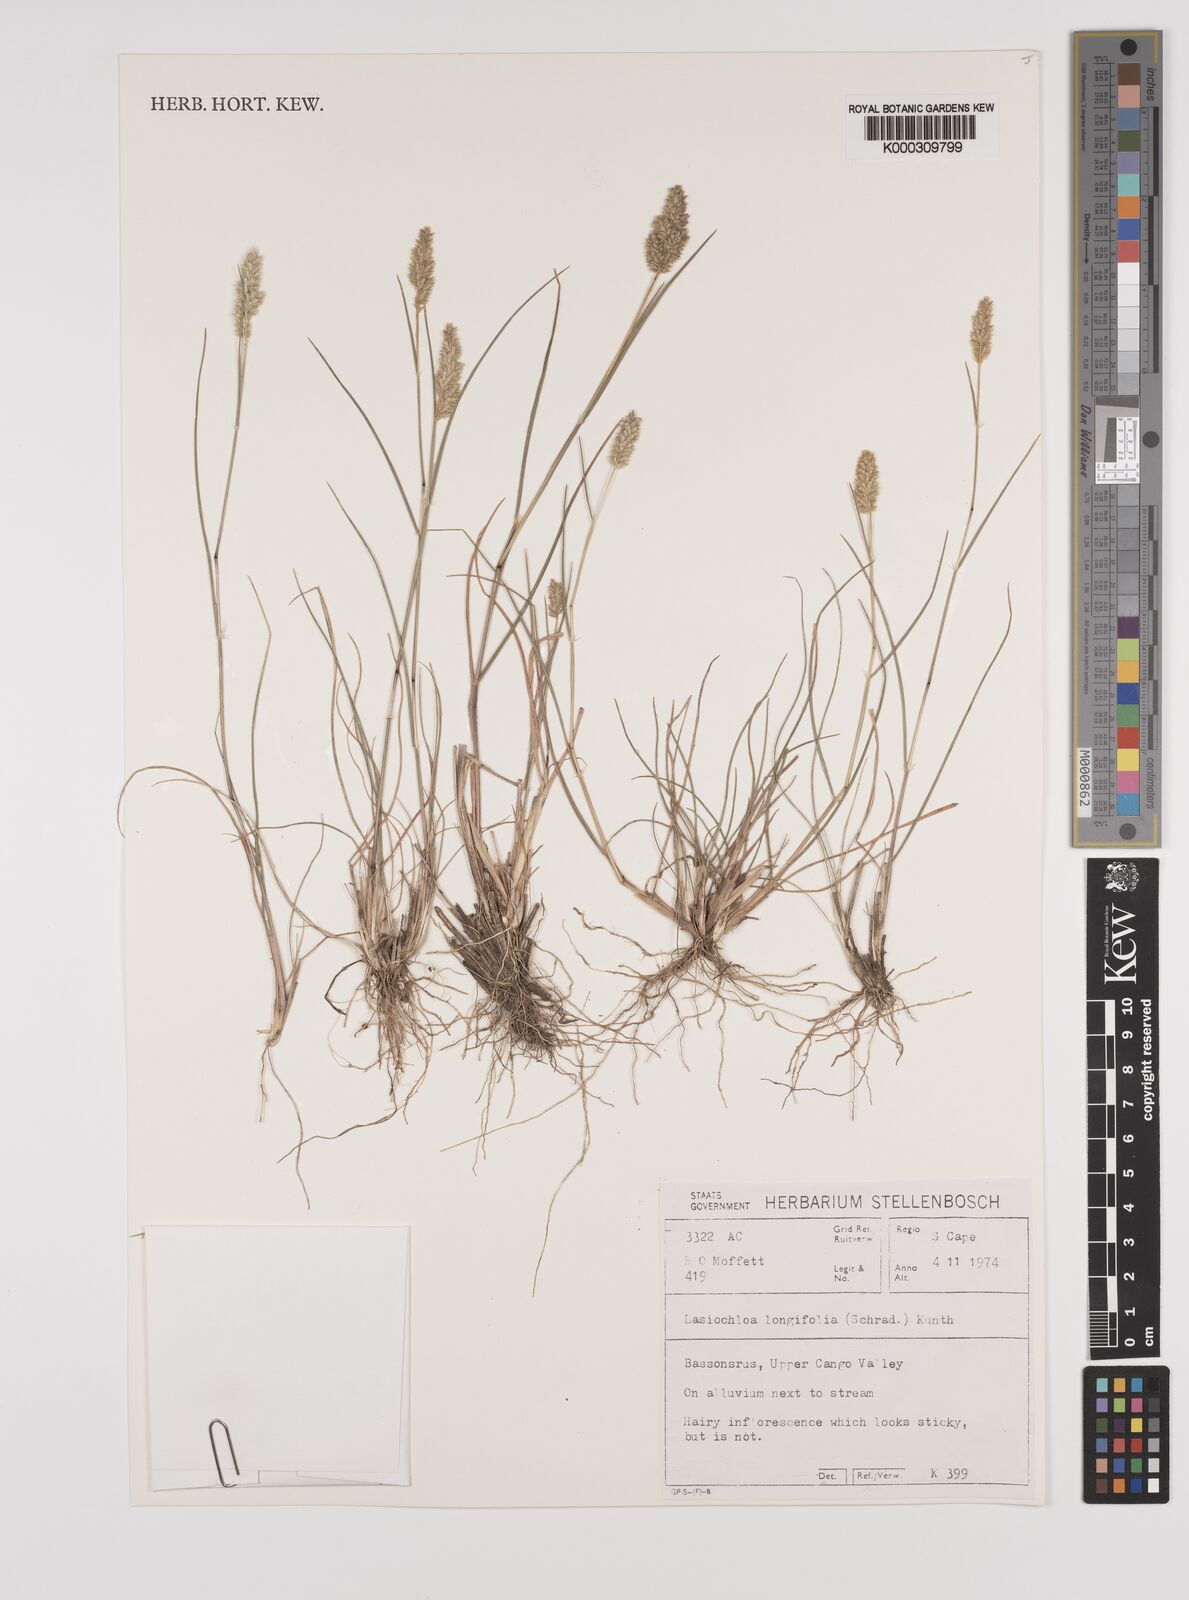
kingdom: Plantae
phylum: Tracheophyta
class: Liliopsida
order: Poales
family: Poaceae
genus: Tribolium
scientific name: Tribolium hispidum
